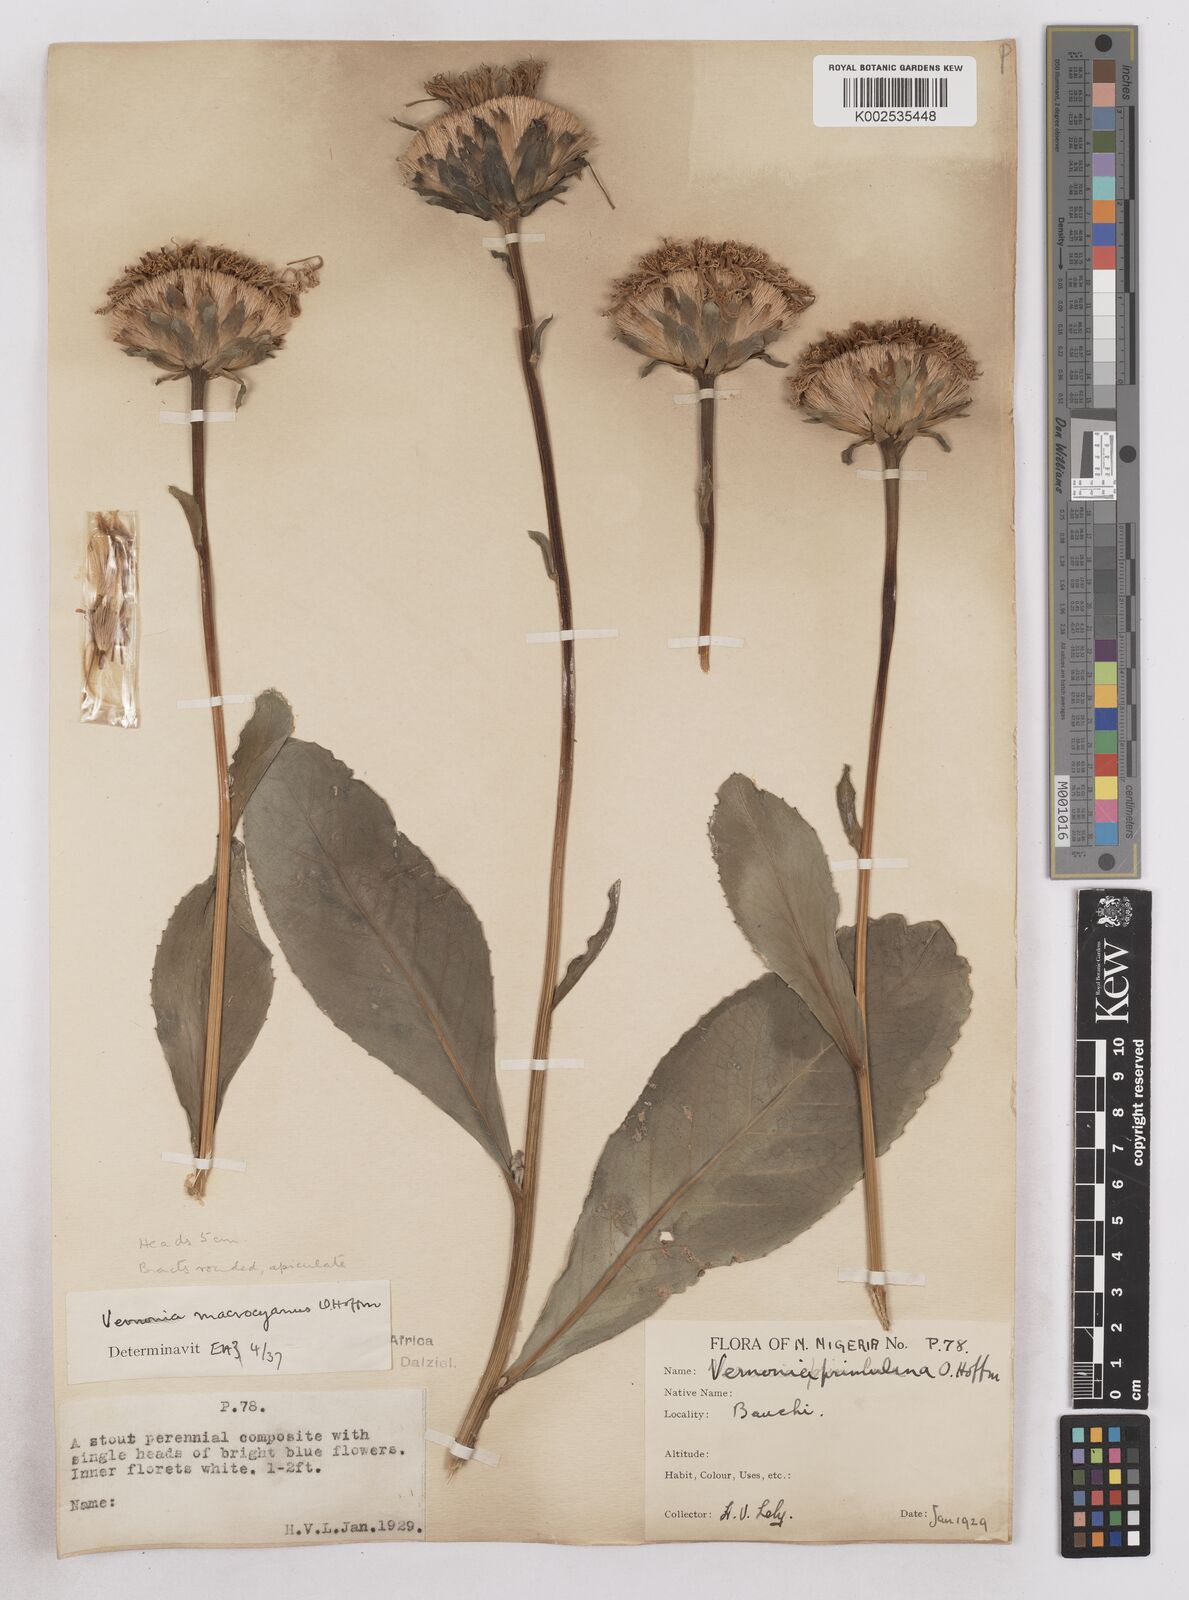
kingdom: Plantae
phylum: Tracheophyta
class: Magnoliopsida
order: Asterales
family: Asteraceae
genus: Linzia
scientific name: Linzia gerberiformis
